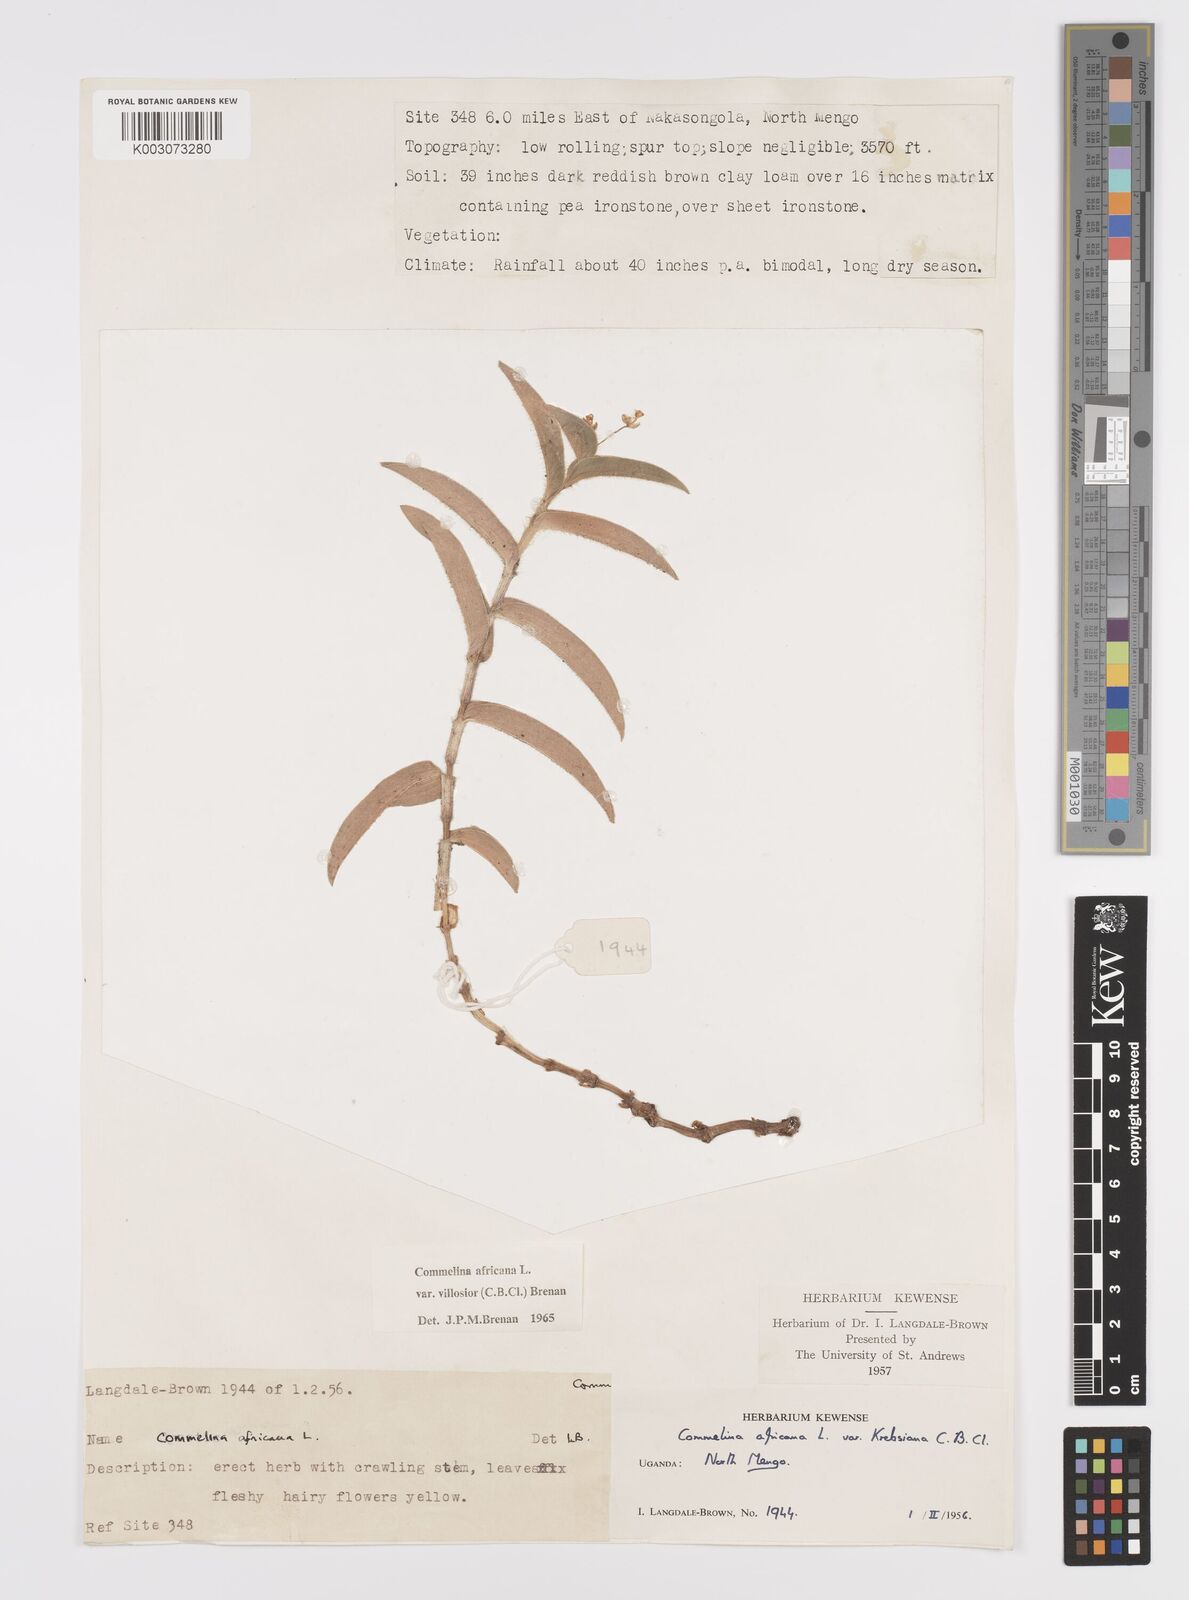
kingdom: Plantae
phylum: Tracheophyta
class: Liliopsida
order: Commelinales
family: Commelinaceae
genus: Commelina
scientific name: Commelina africana
